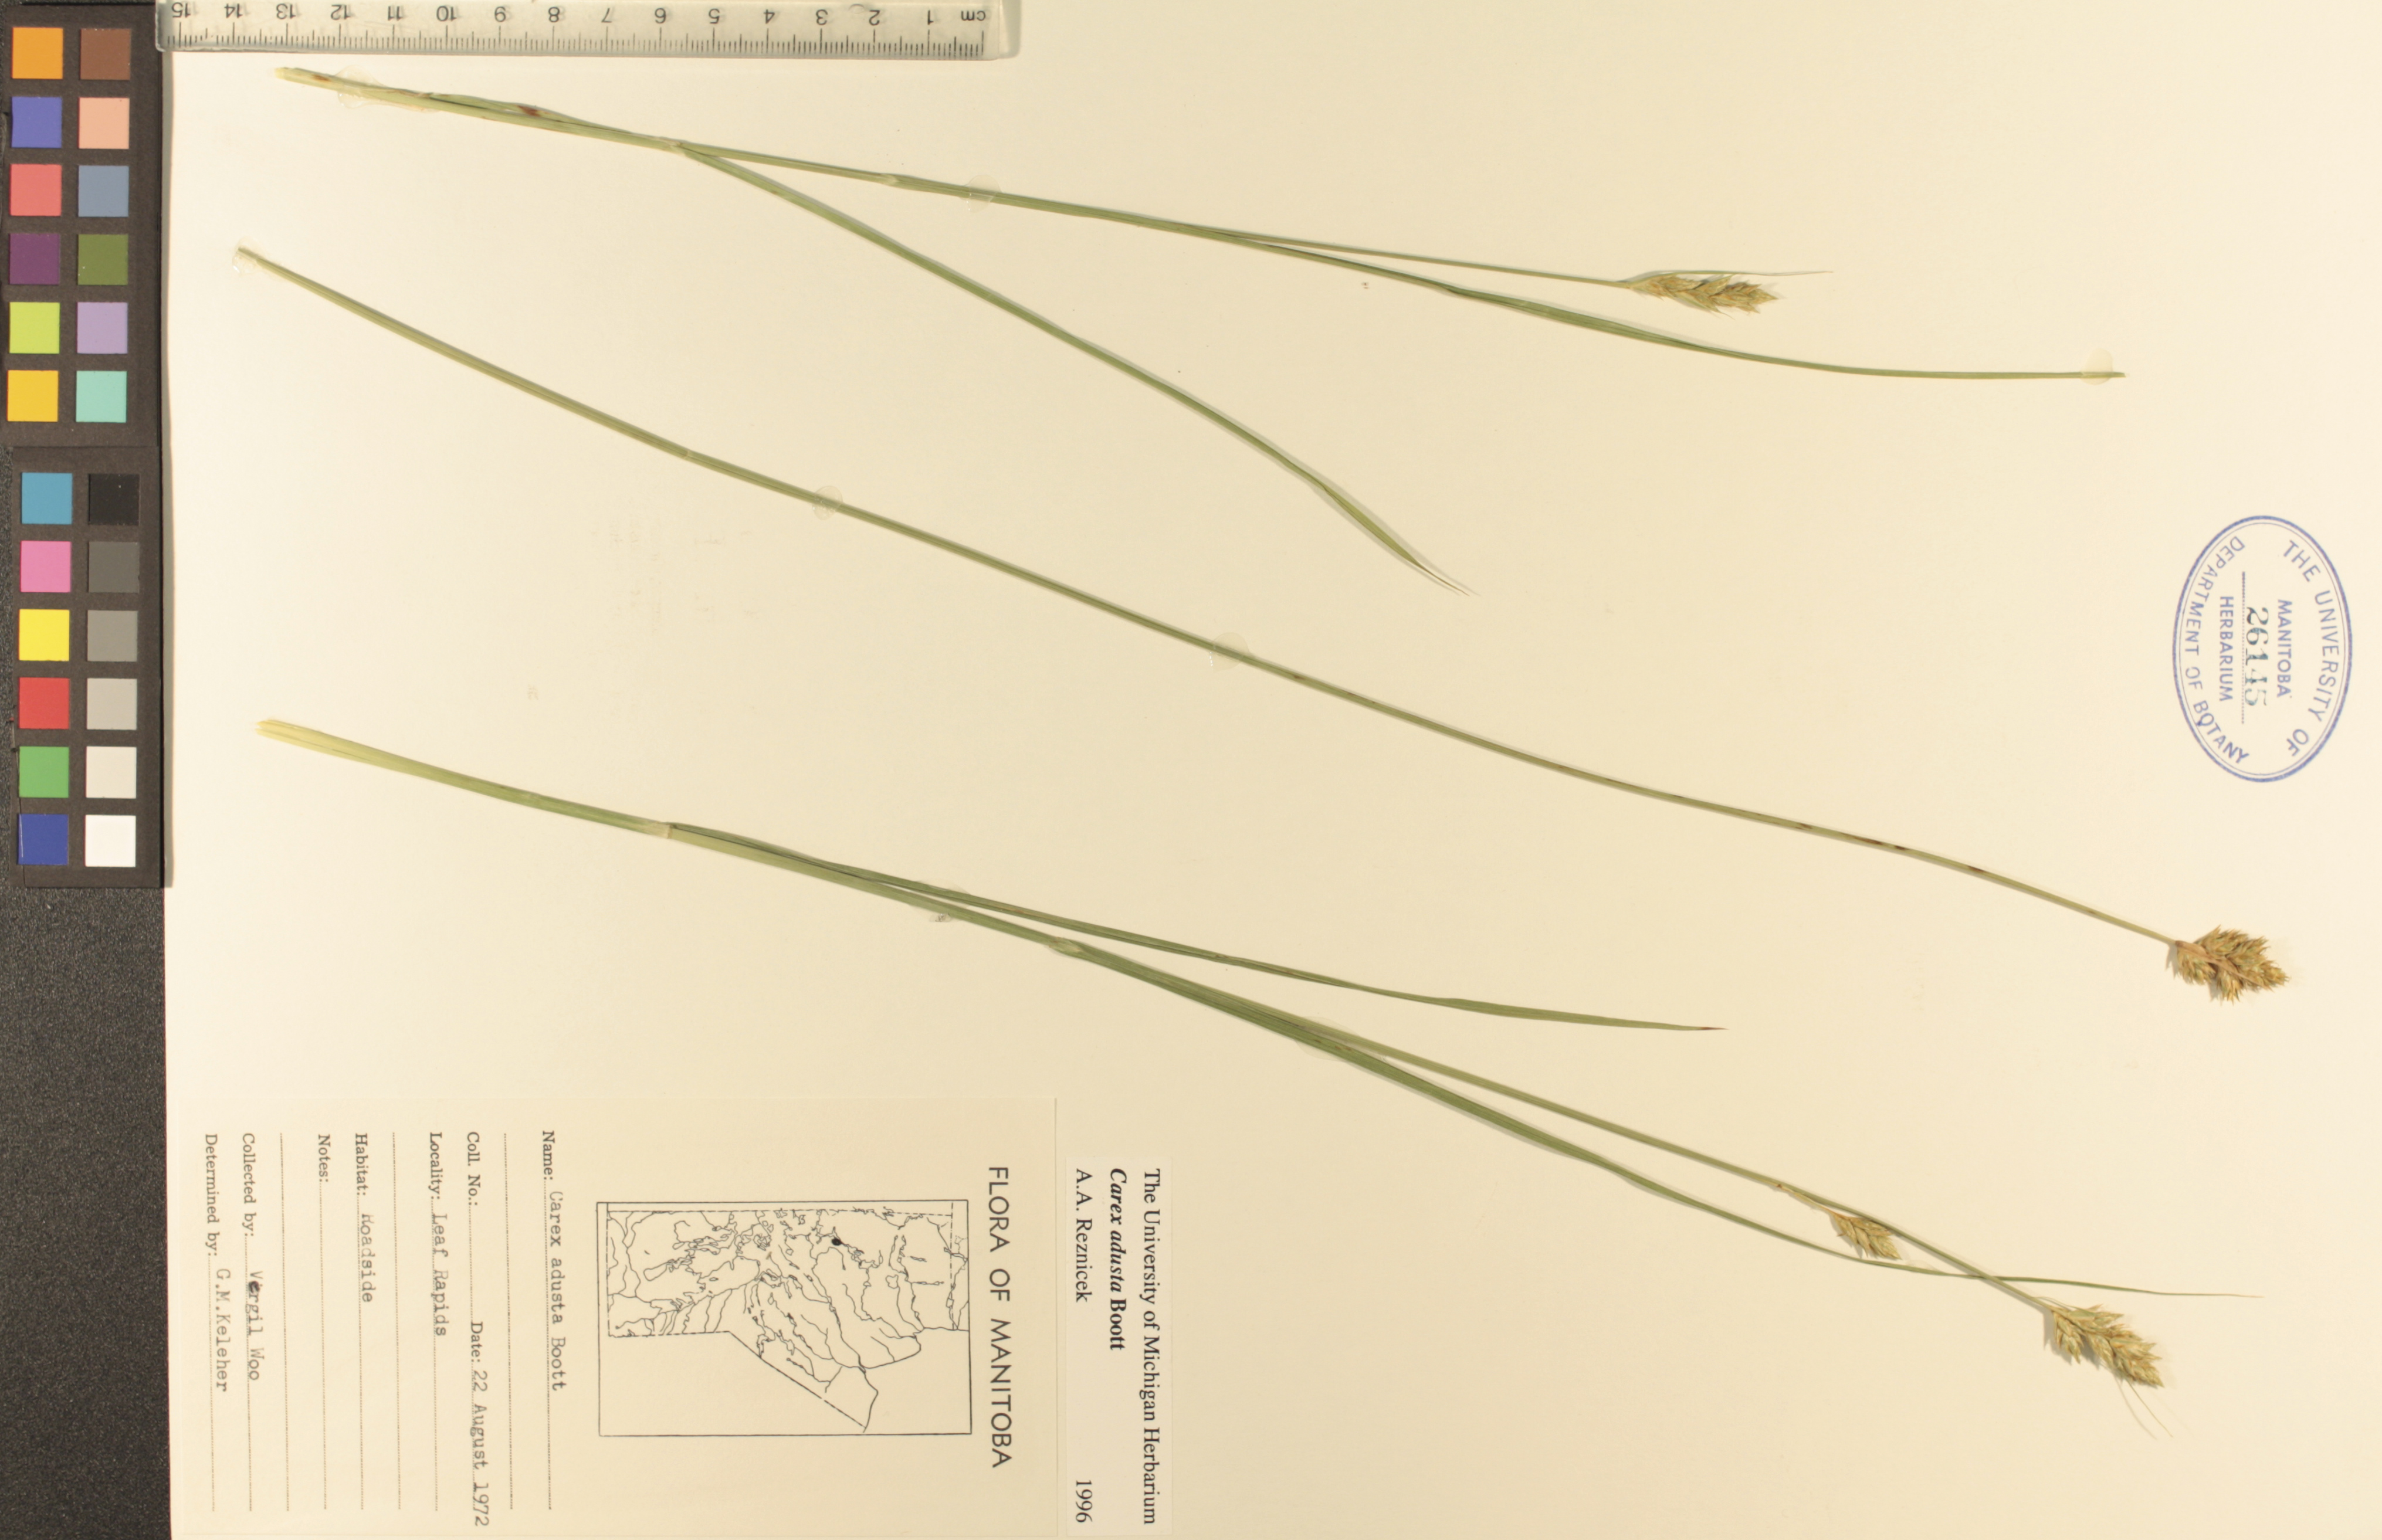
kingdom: Plantae
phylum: Tracheophyta
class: Liliopsida
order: Poales
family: Cyperaceae
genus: Carex
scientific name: Carex adusta
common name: Browned sedge
